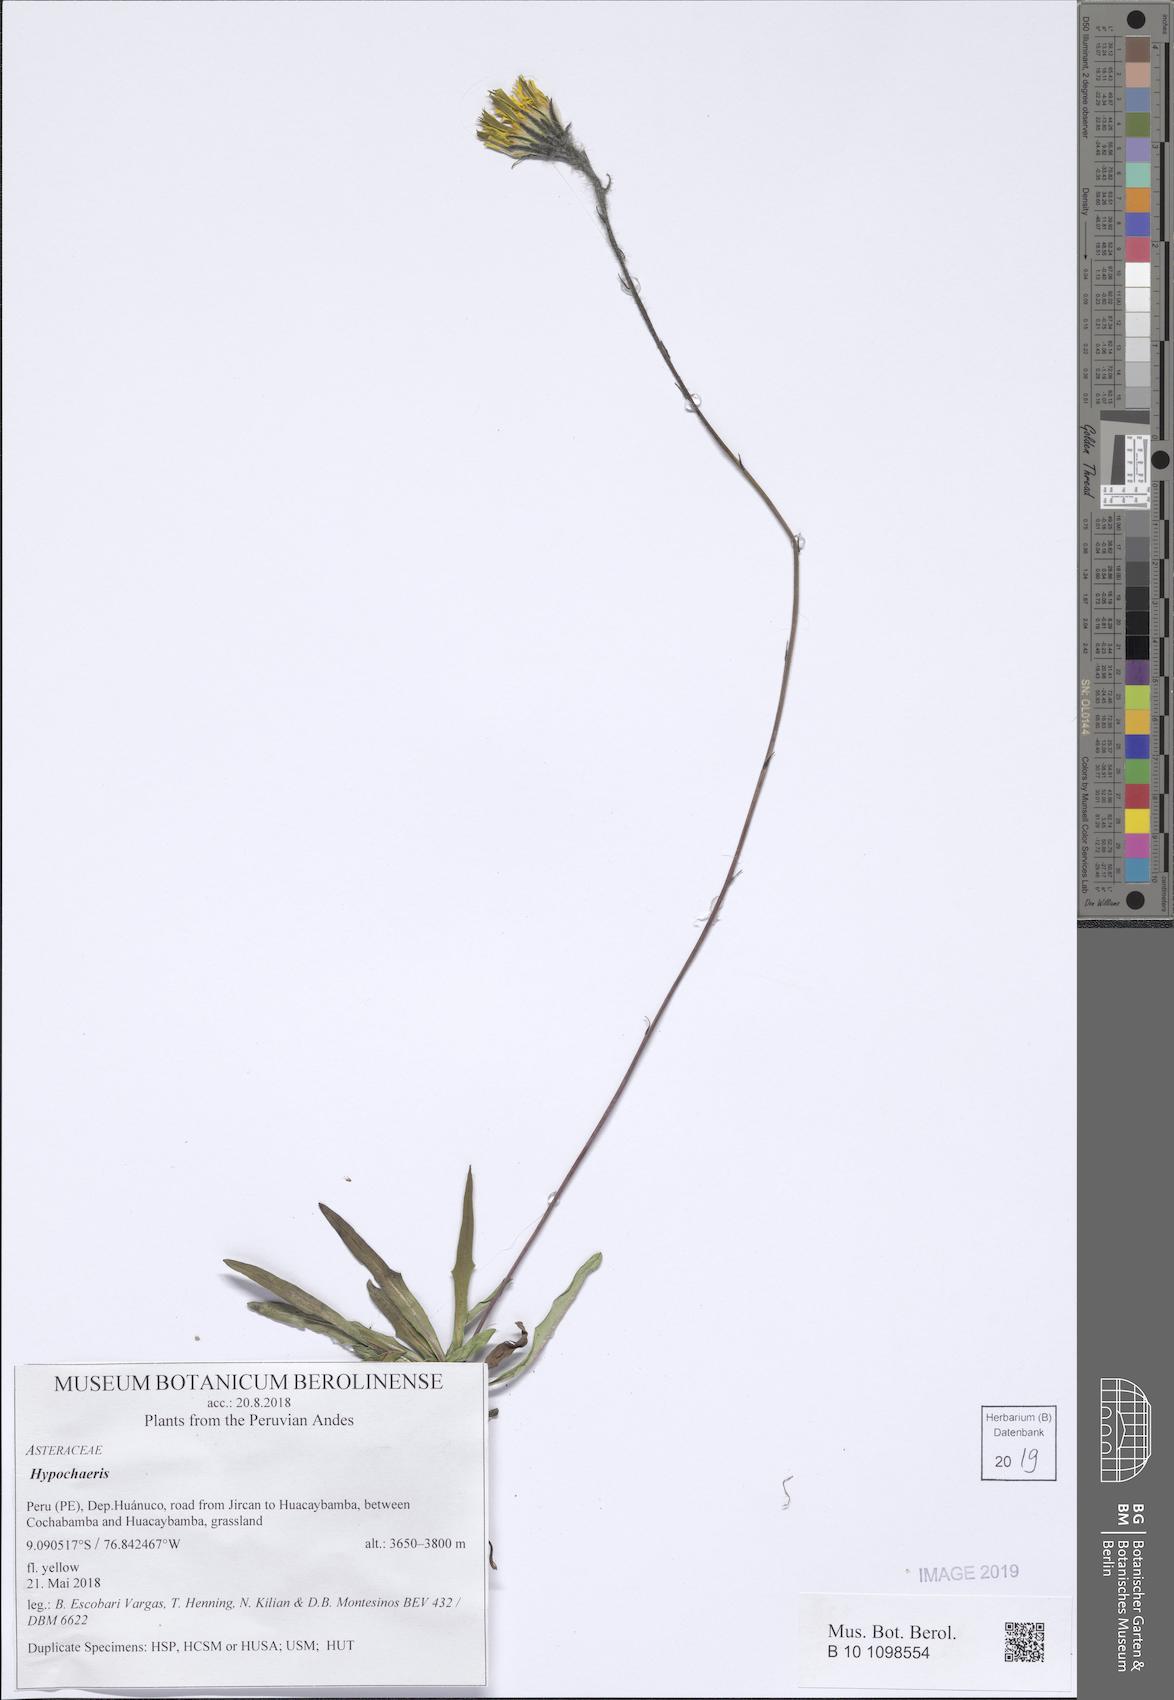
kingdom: Plantae
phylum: Tracheophyta
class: Magnoliopsida
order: Asterales
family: Asteraceae
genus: Hypochaeris
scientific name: Hypochaeris
